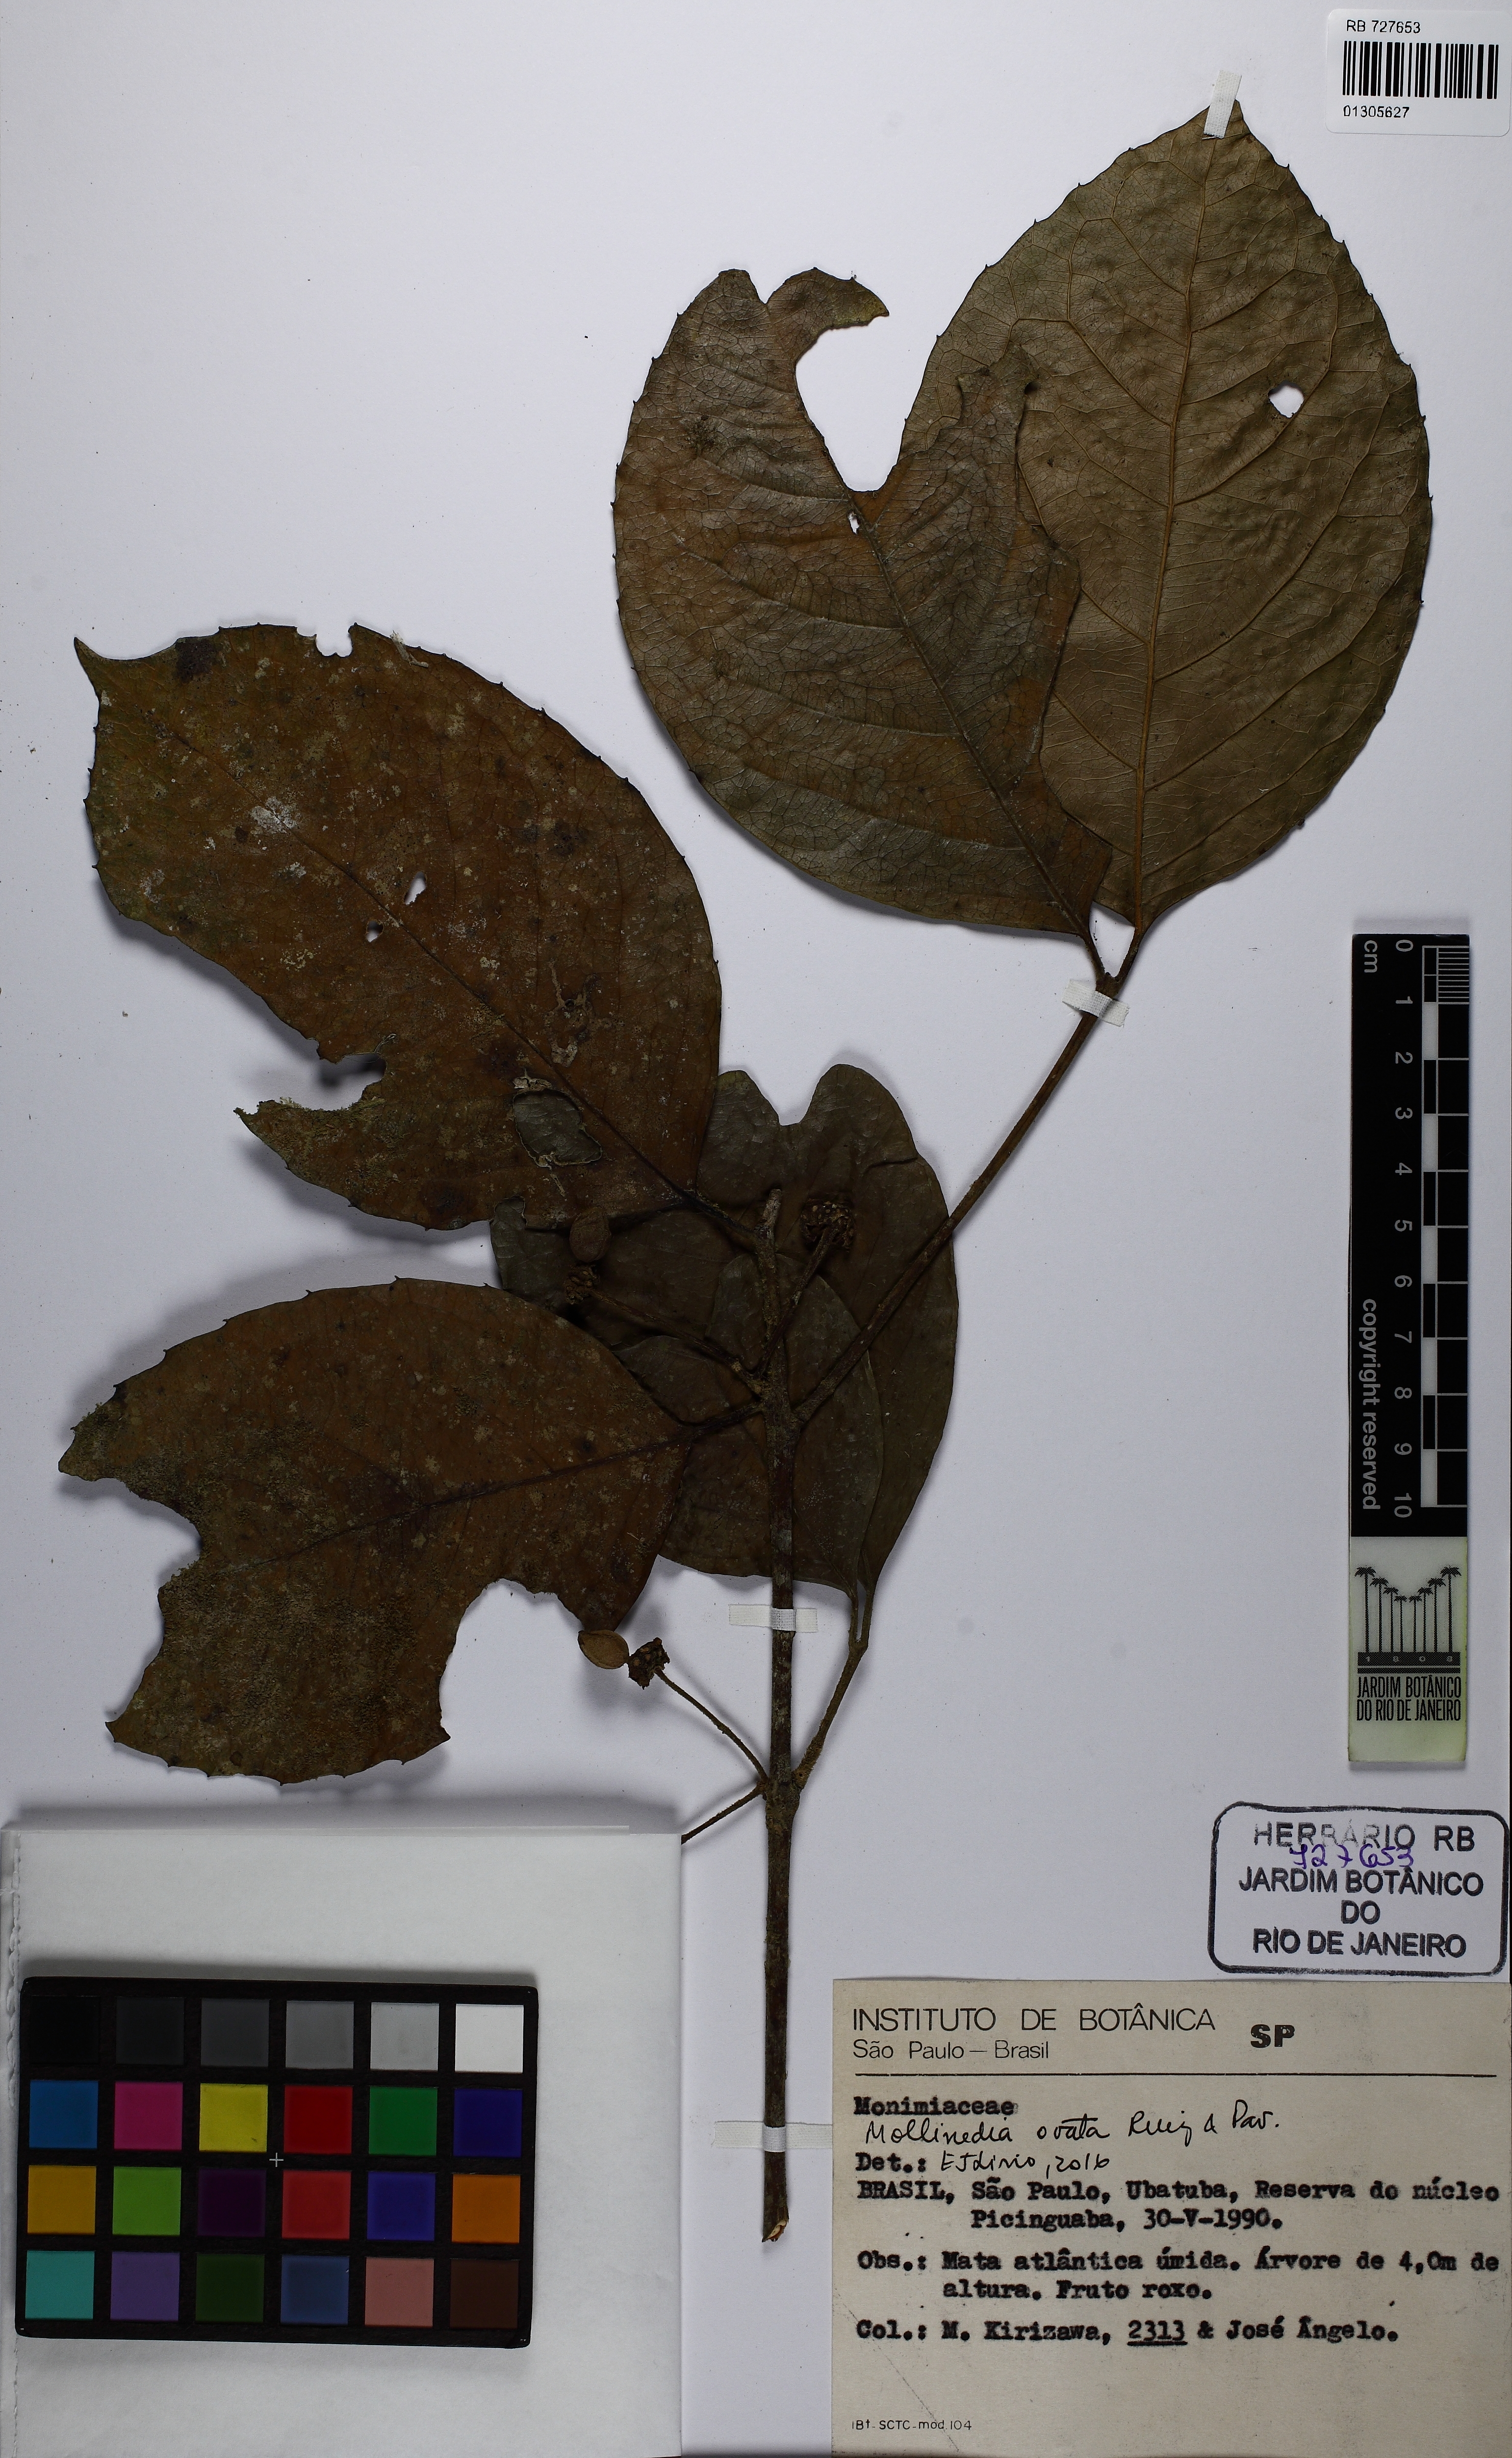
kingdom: Plantae
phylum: Tracheophyta
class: Magnoliopsida
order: Laurales
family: Monimiaceae
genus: Mollinedia
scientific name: Mollinedia ovata
